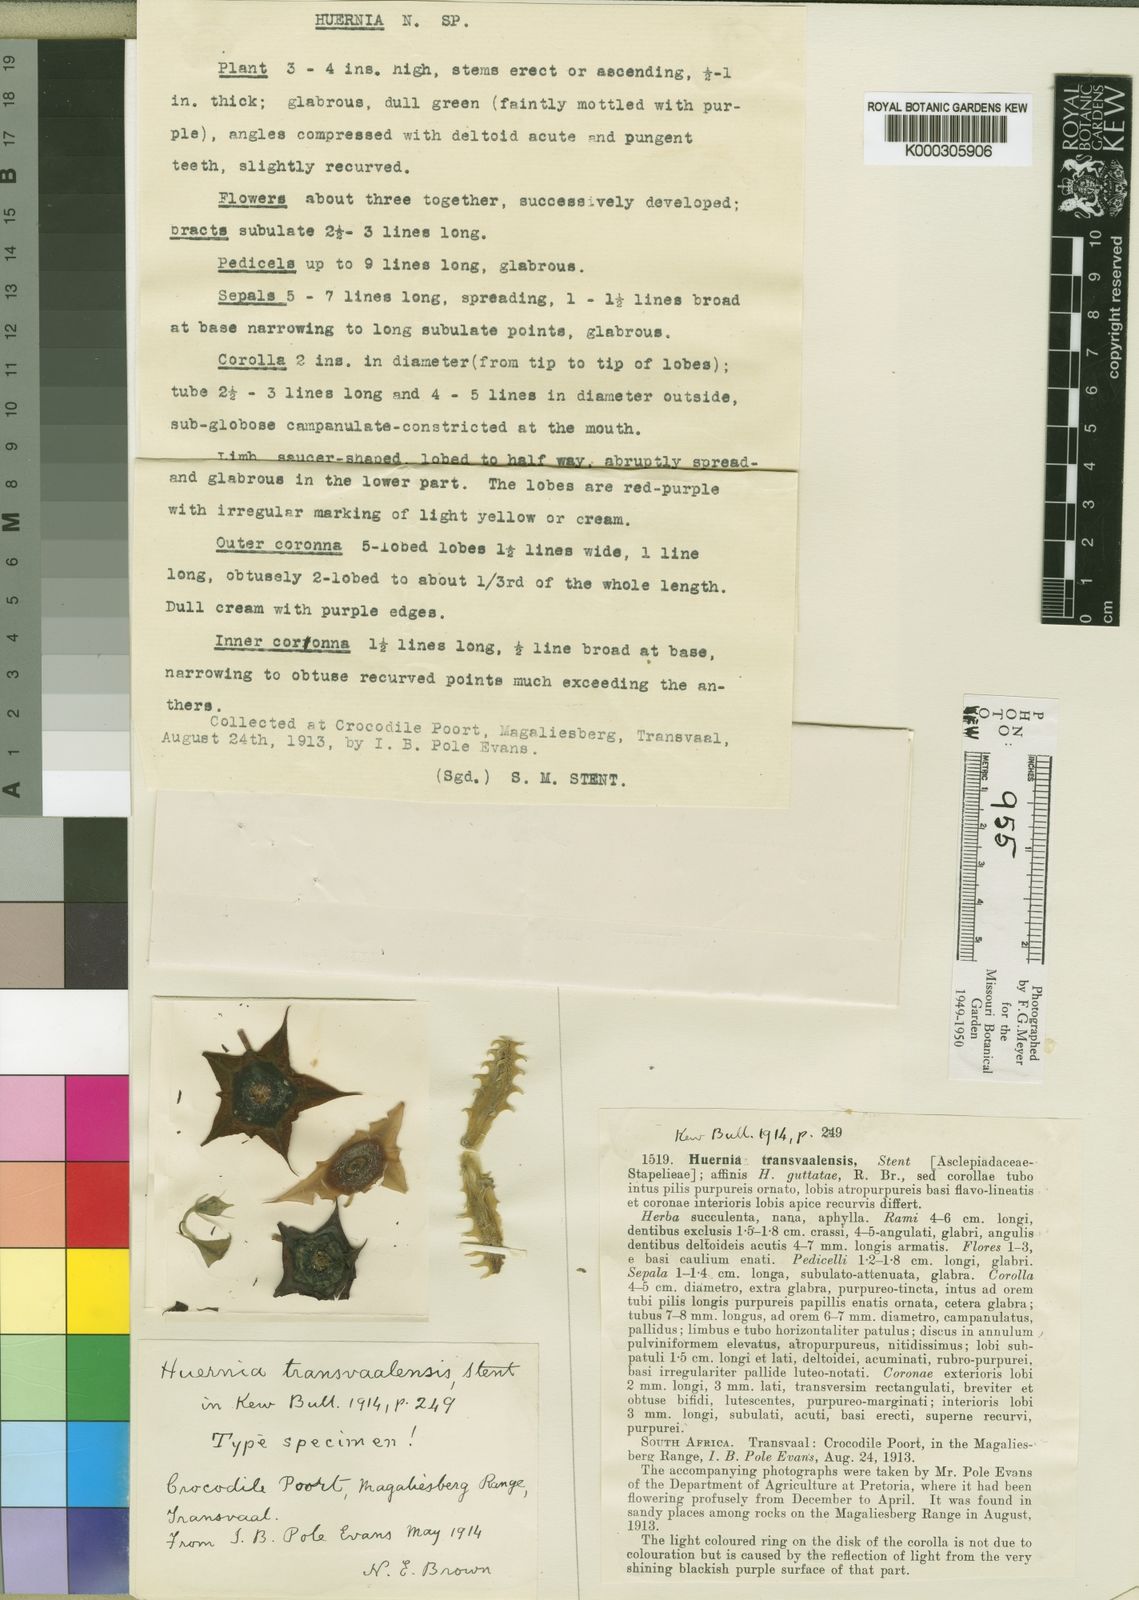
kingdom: Plantae
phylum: Tracheophyta
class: Magnoliopsida
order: Gentianales
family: Apocynaceae
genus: Ceropegia
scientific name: Ceropegia transvaalensis
